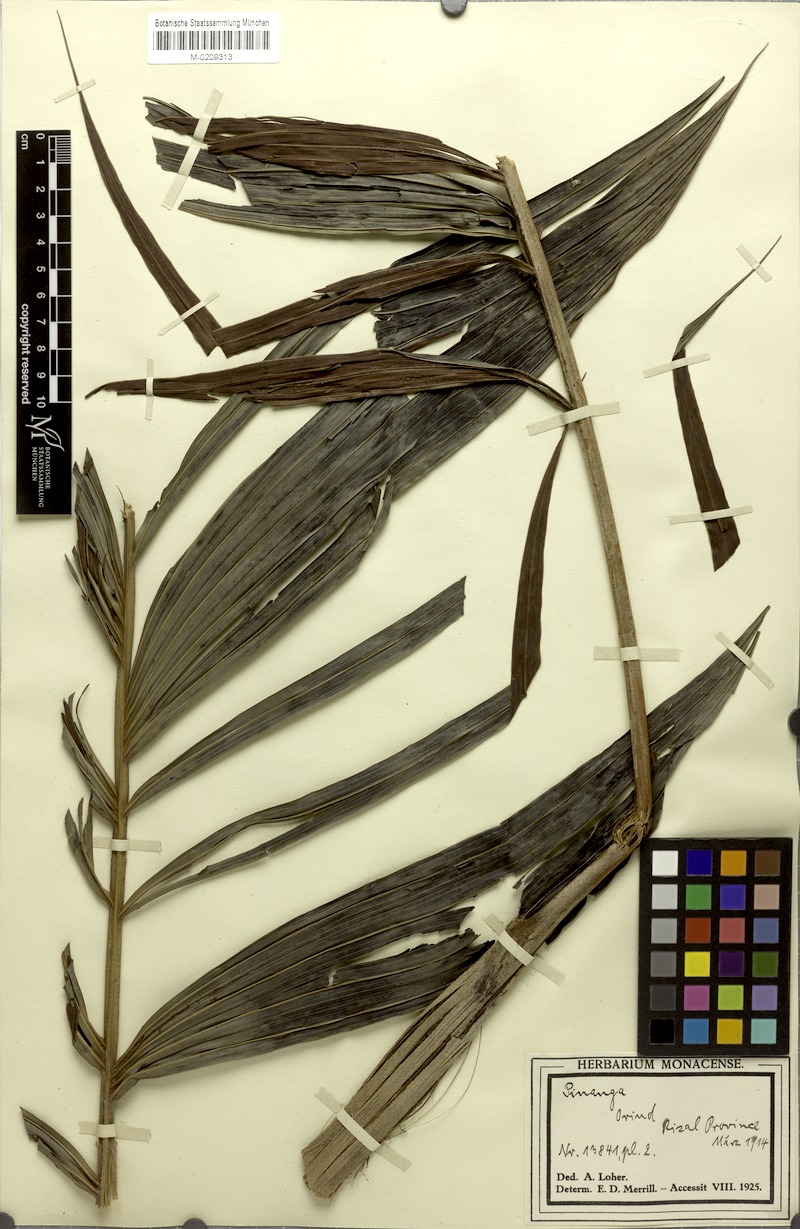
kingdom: Plantae
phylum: Tracheophyta
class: Liliopsida
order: Arecales
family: Arecaceae
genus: Pinanga
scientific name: Pinanga
